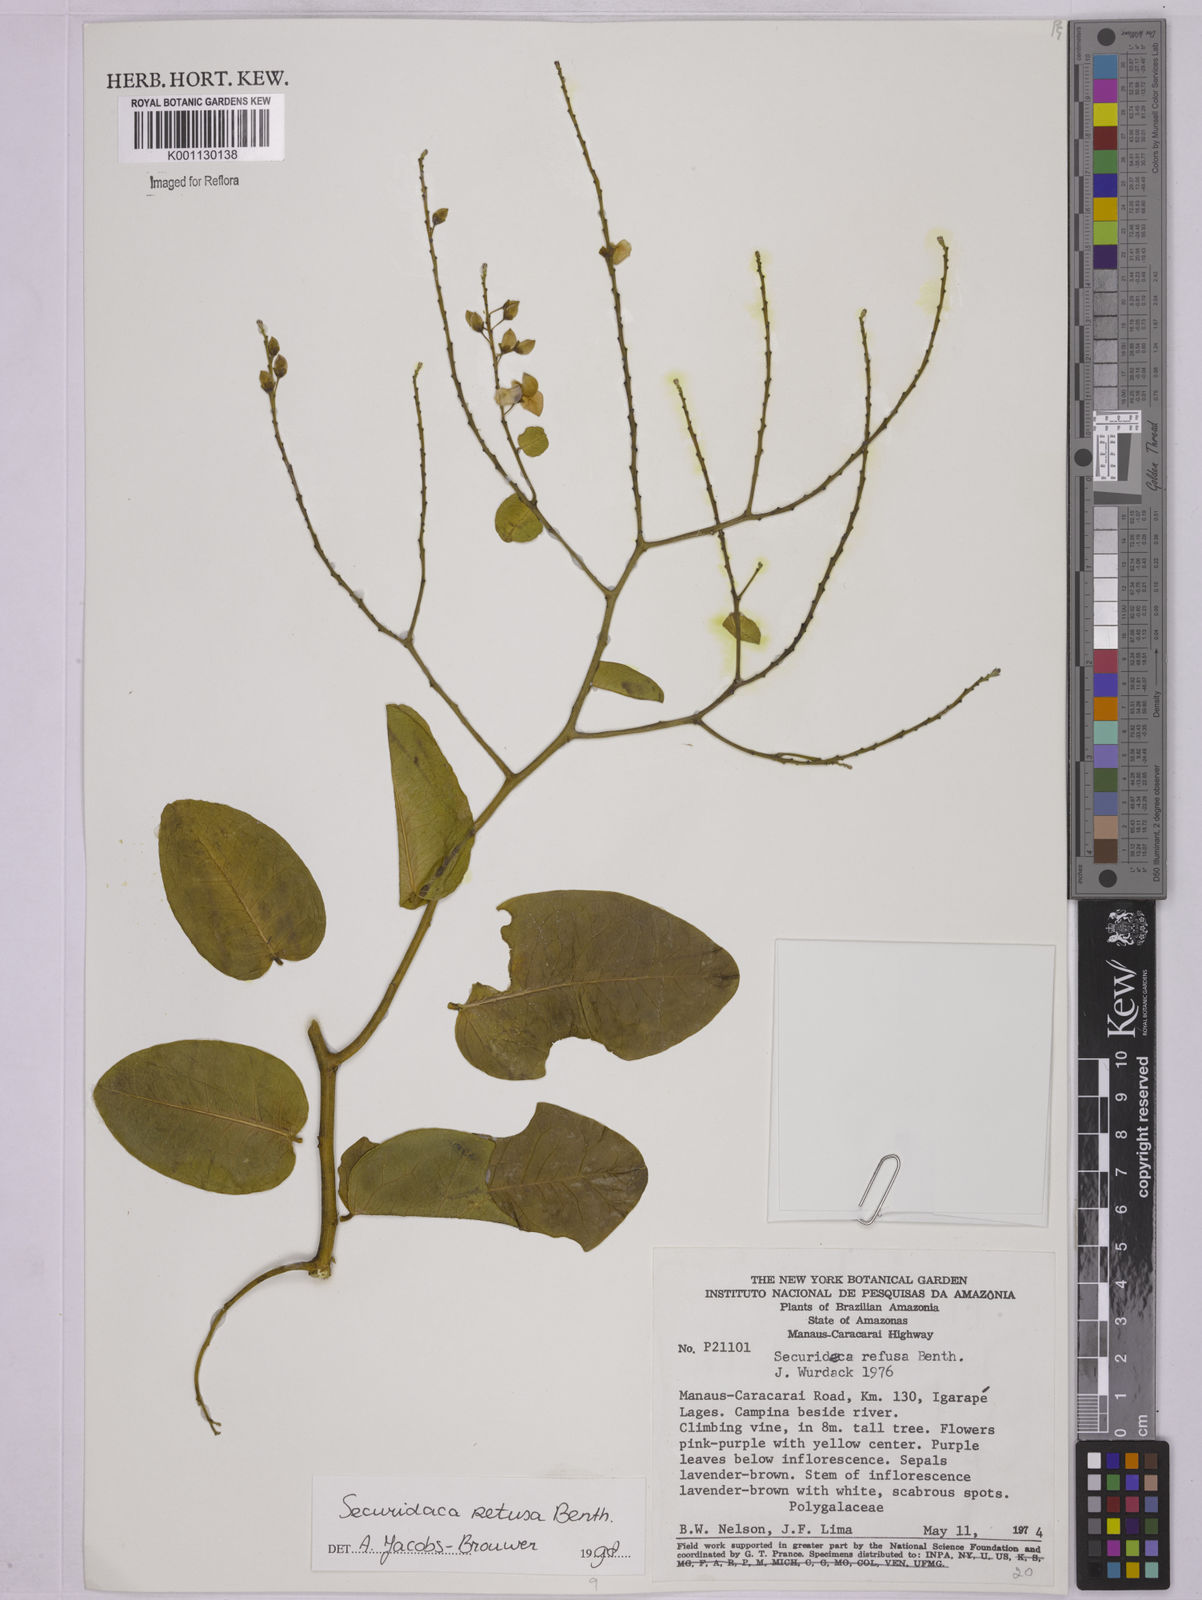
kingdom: Plantae
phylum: Tracheophyta
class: Magnoliopsida
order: Fabales
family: Polygalaceae
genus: Securidaca
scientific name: Securidaca retusa
